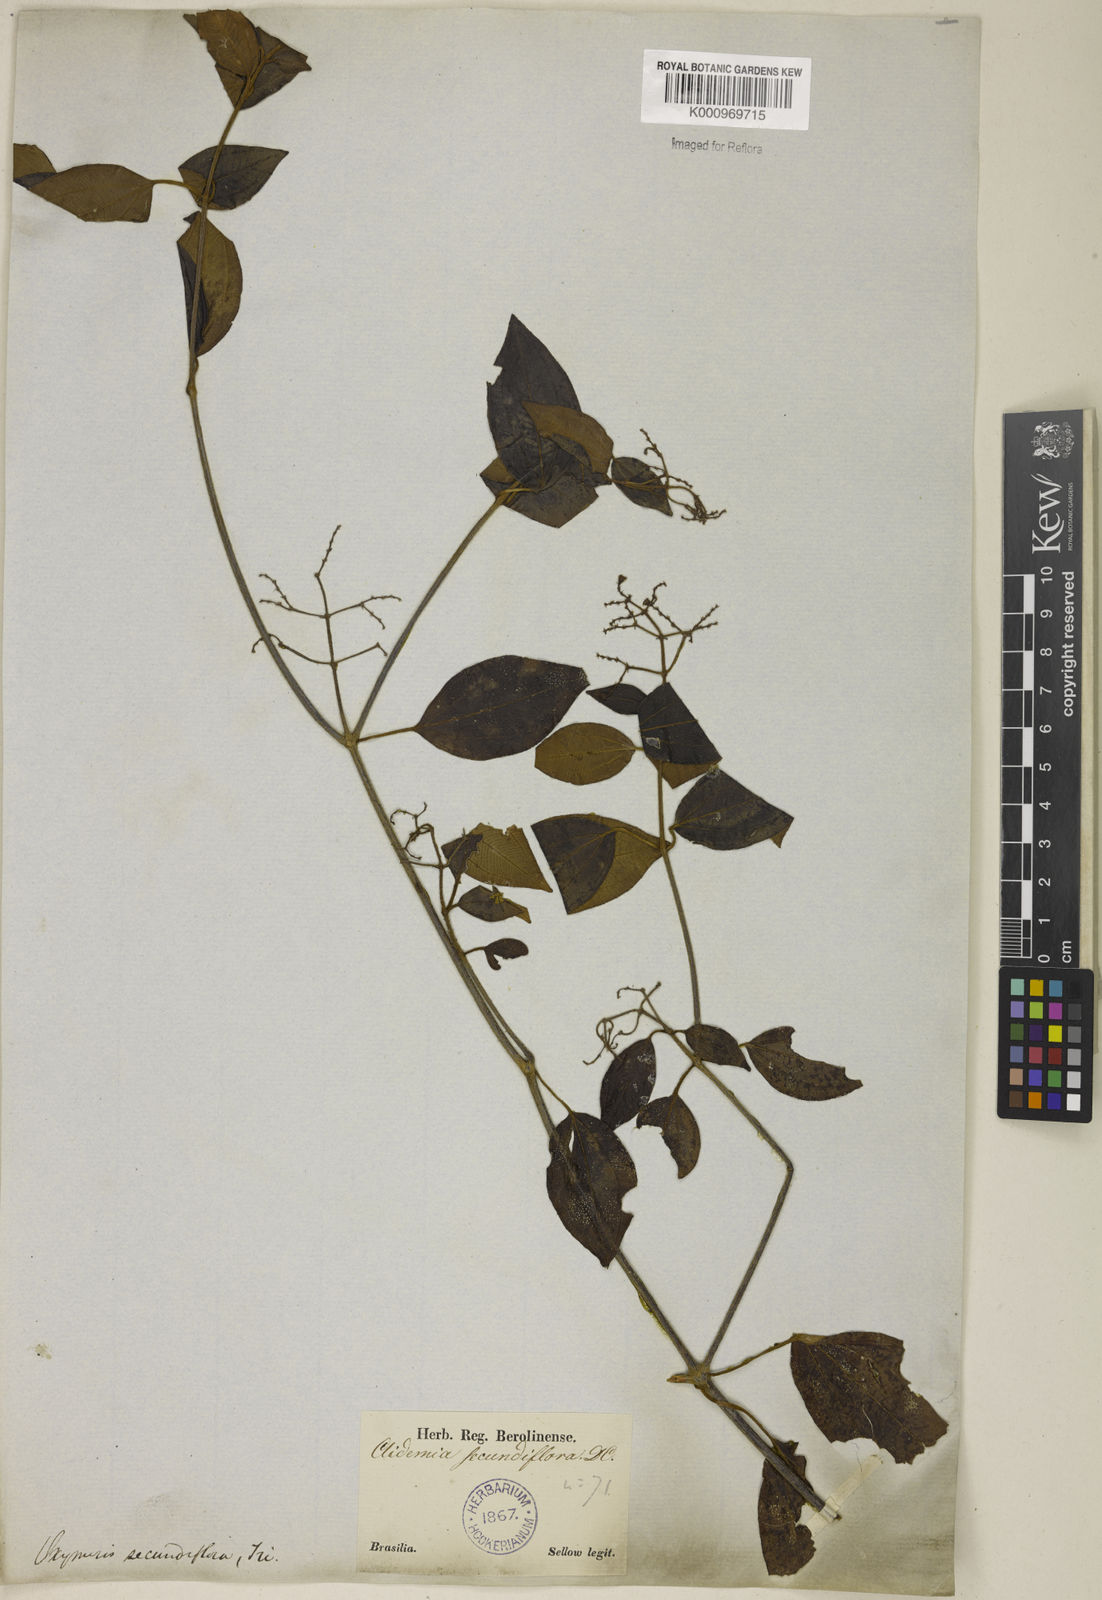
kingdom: Plantae
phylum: Tracheophyta
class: Magnoliopsida
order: Myrtales
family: Melastomataceae
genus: Miconia
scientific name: Miconia rhamnifolia
